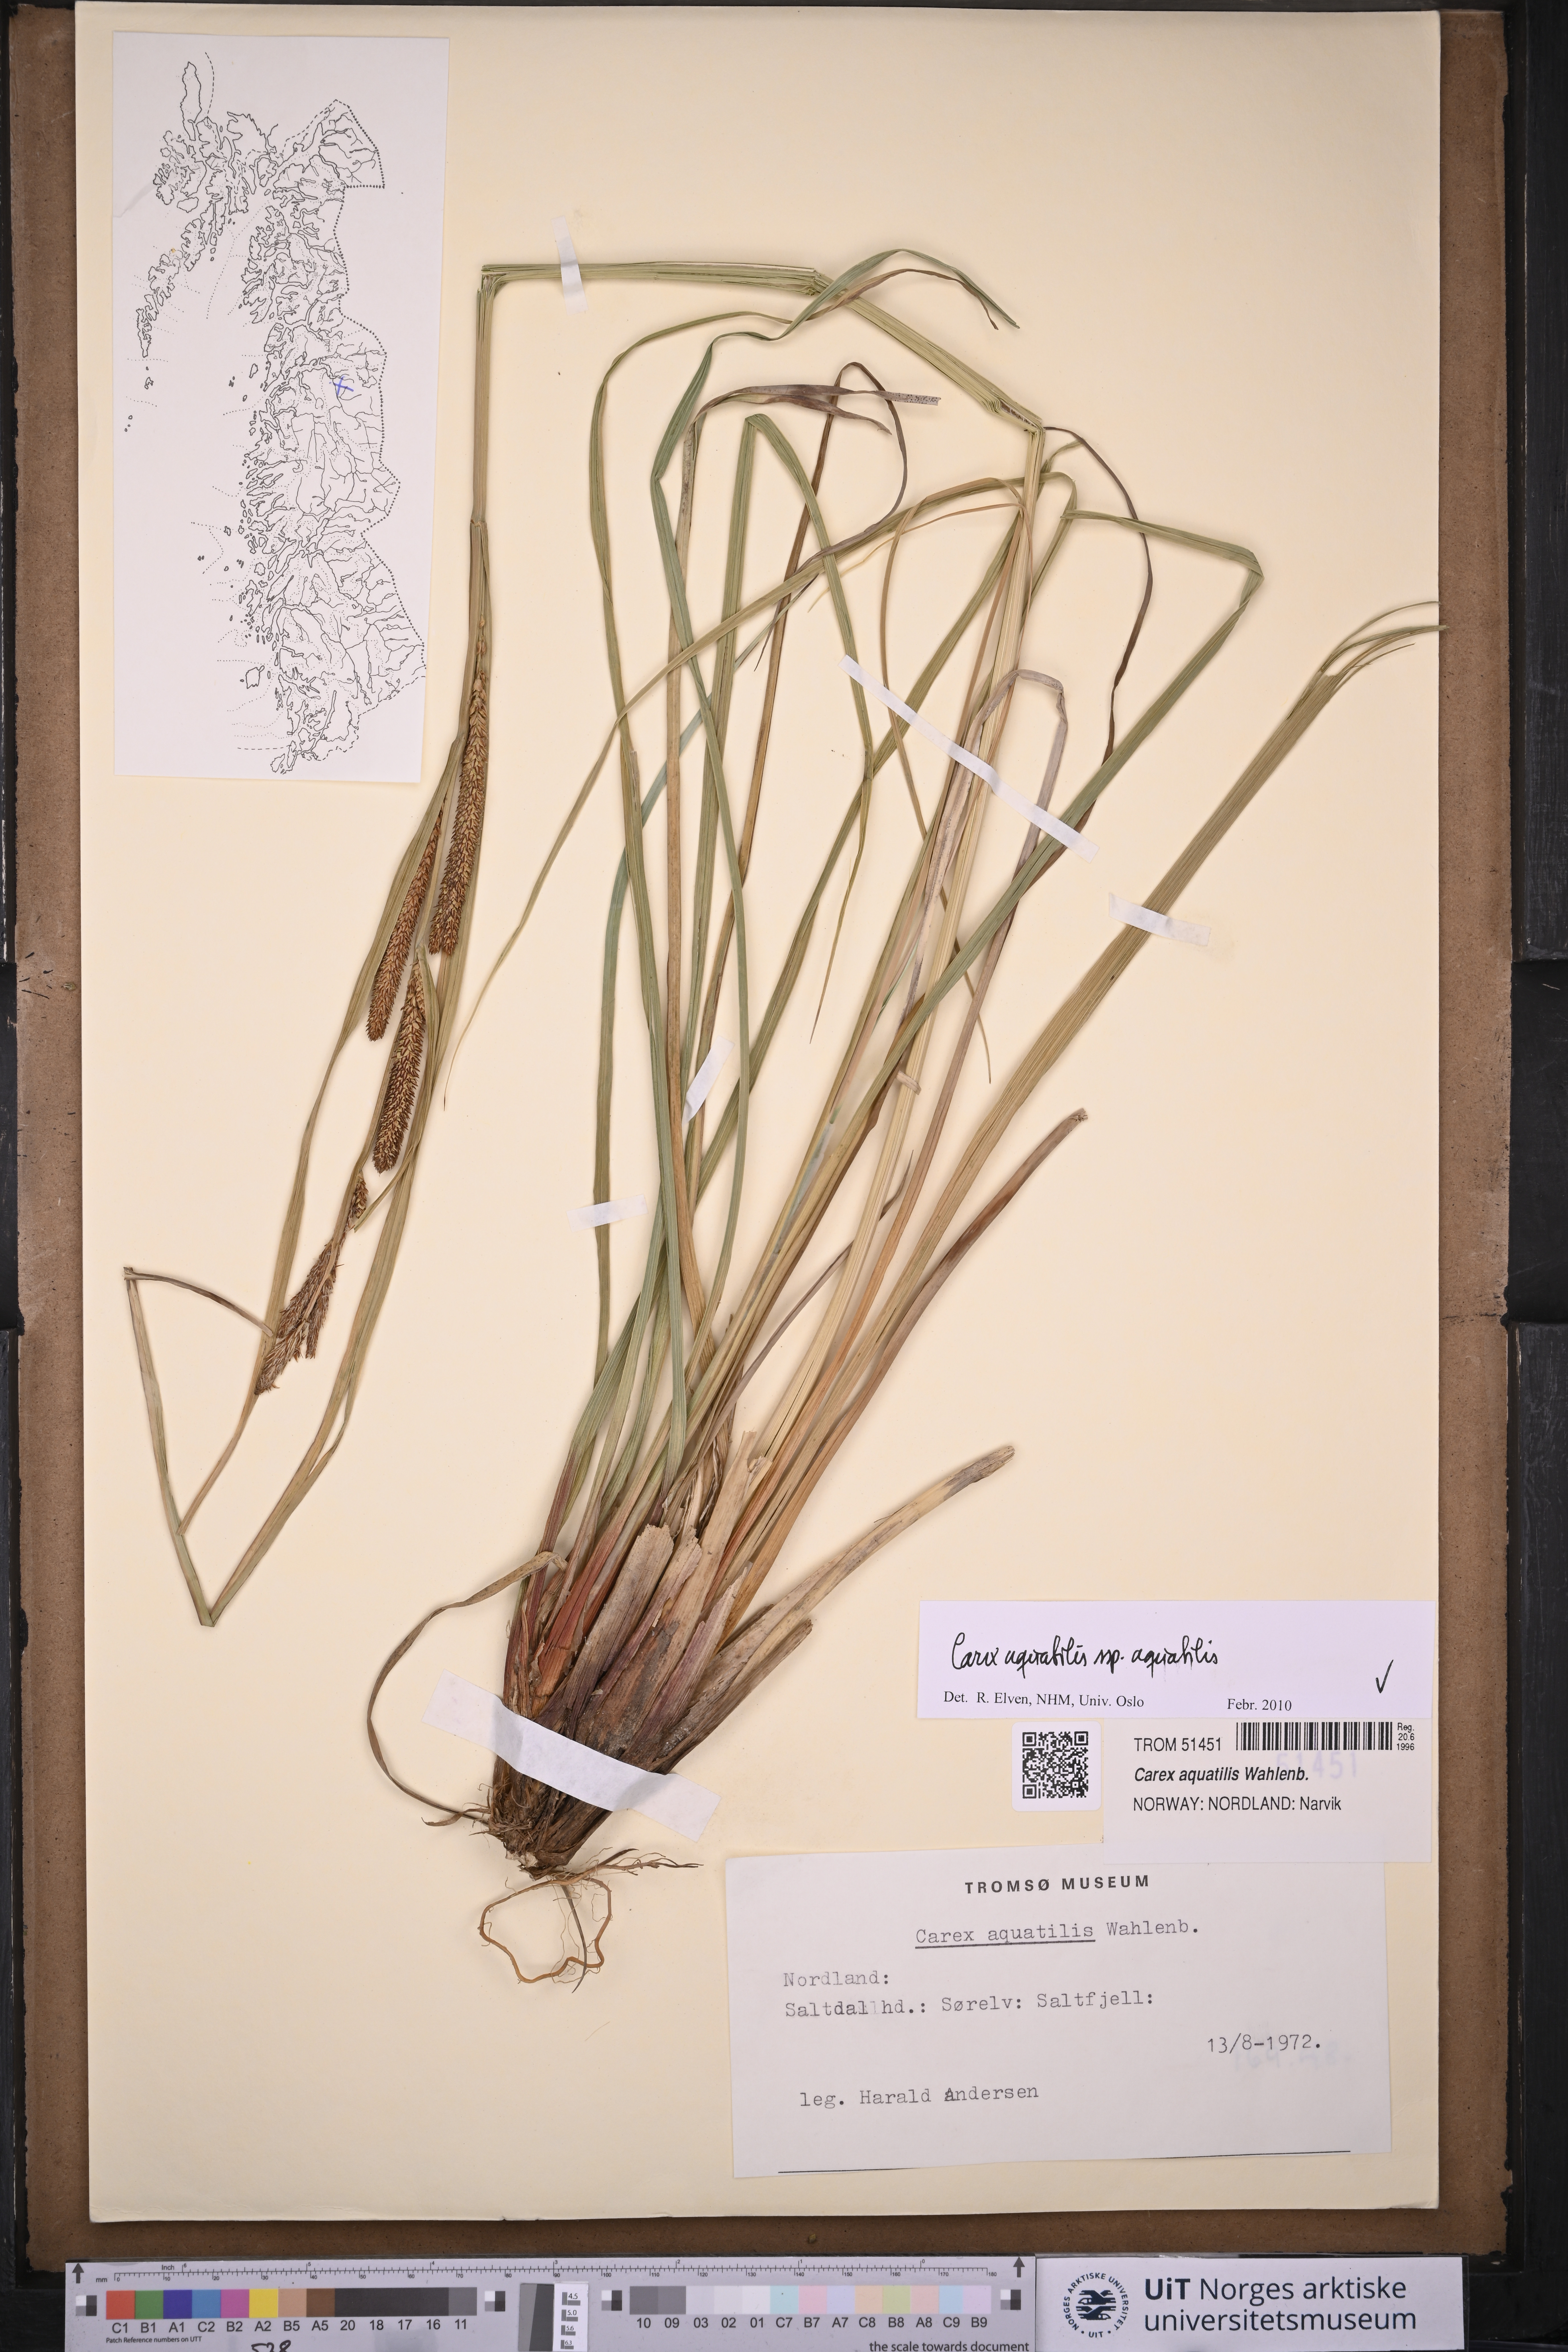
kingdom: Plantae
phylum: Tracheophyta
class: Liliopsida
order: Poales
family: Cyperaceae
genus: Carex
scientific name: Carex aquatilis
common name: Water sedge
